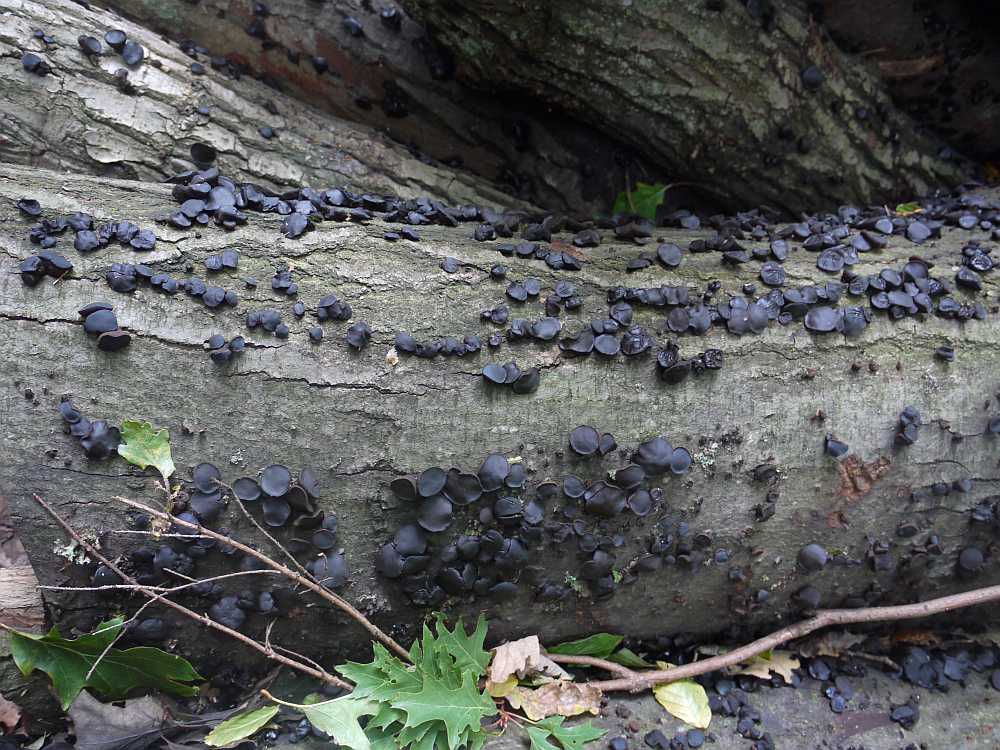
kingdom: Fungi
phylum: Ascomycota
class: Leotiomycetes
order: Phacidiales
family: Phacidiaceae
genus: Bulgaria
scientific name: Bulgaria inquinans
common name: afsmittende topsvamp
